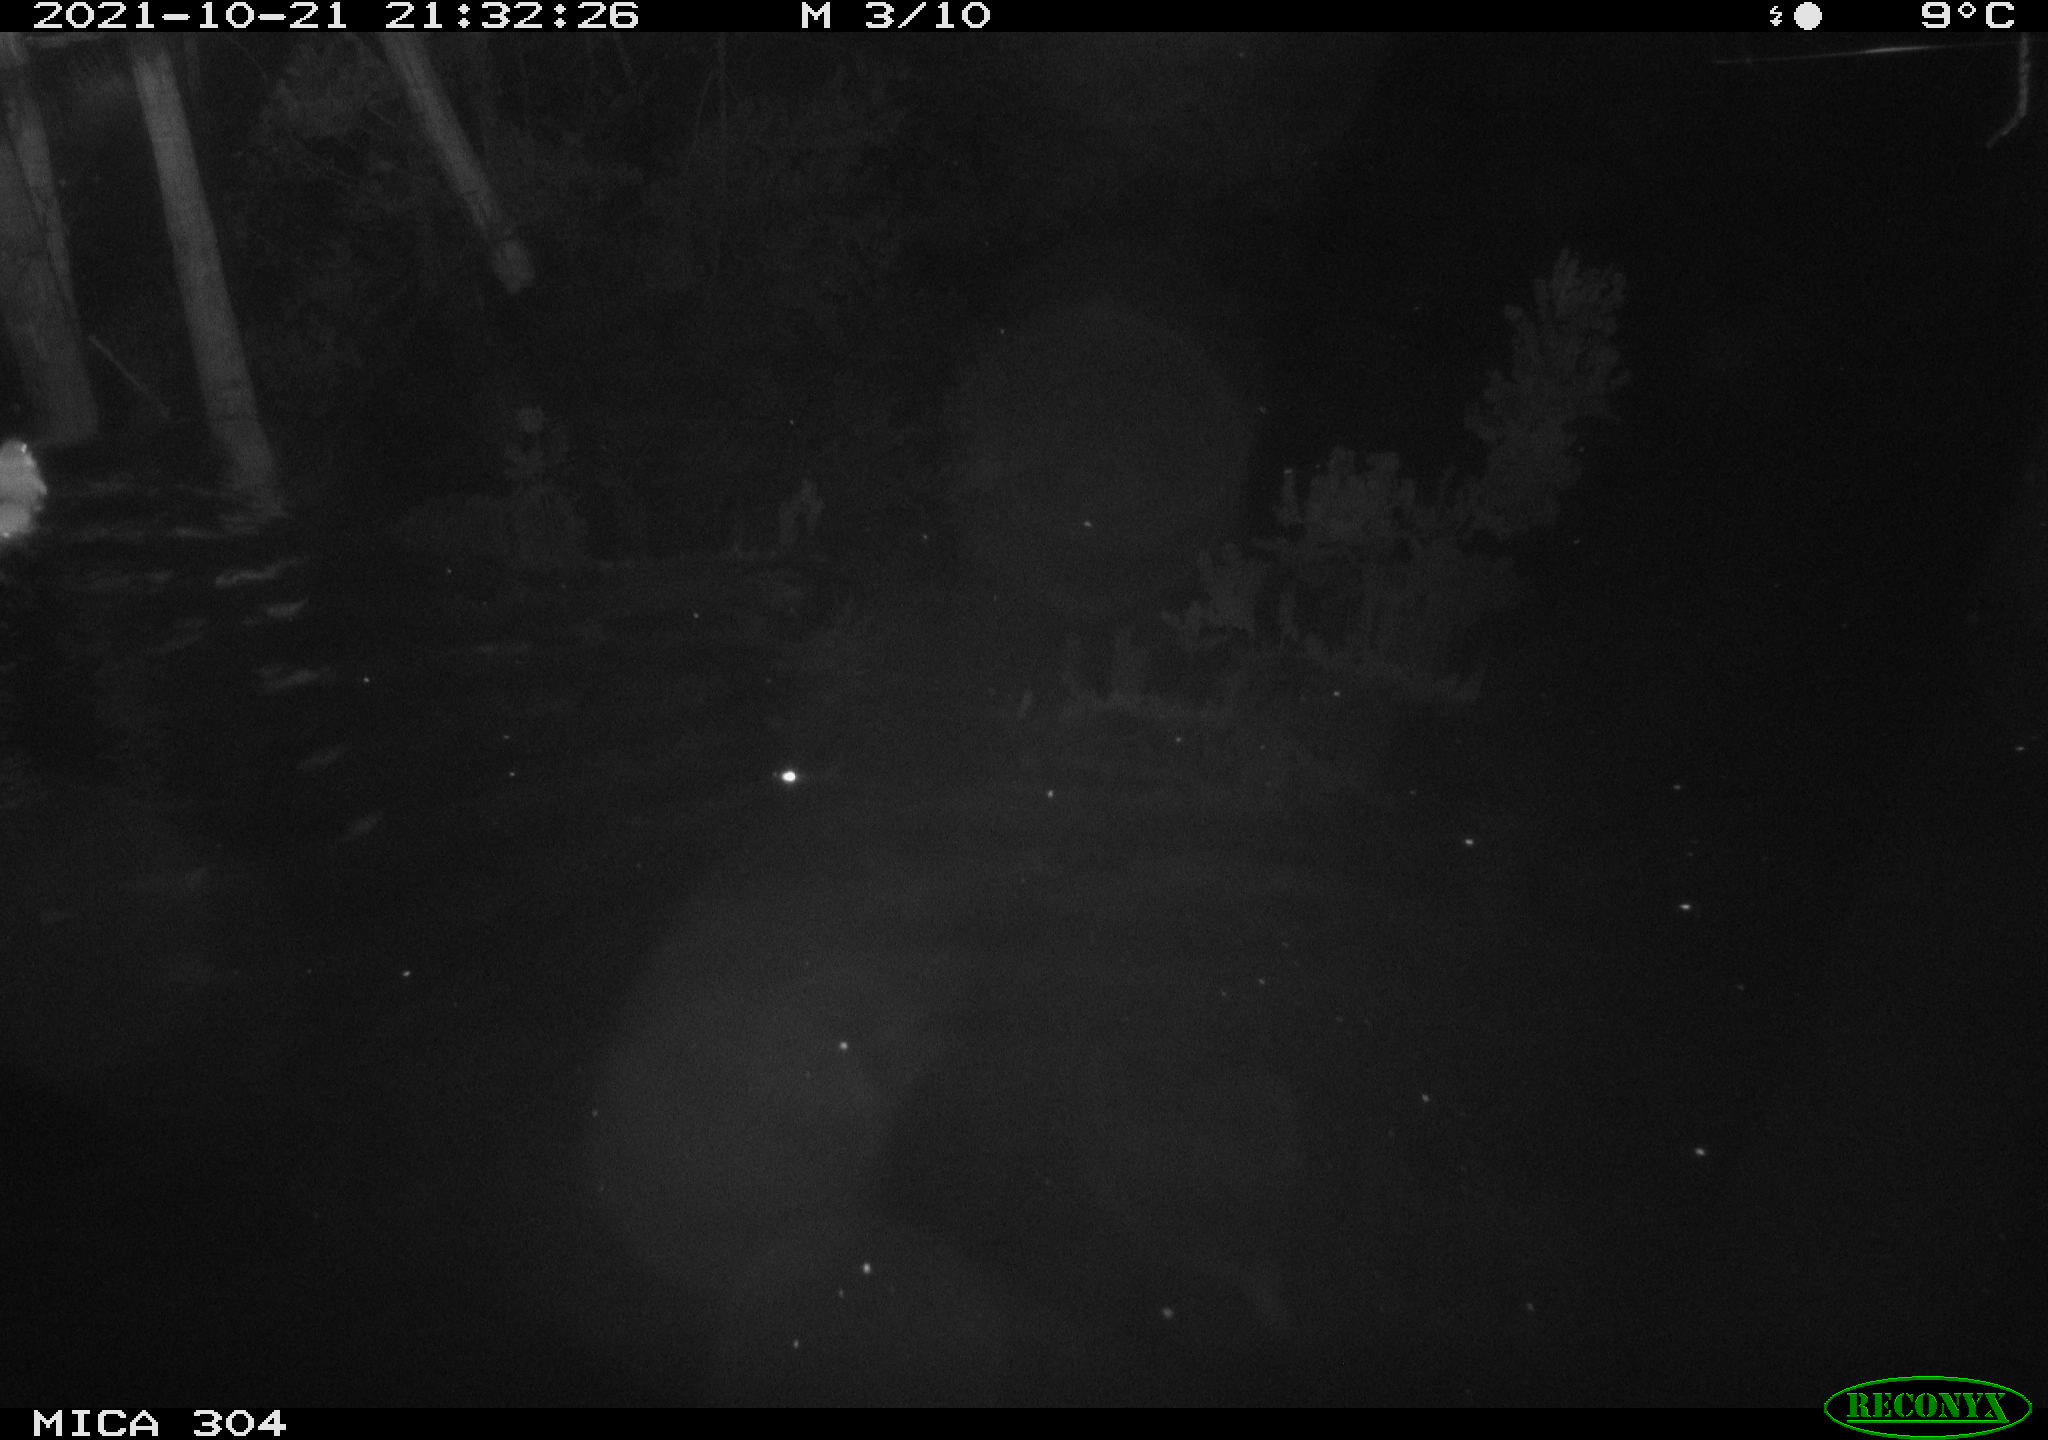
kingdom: Animalia
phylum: Chordata
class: Mammalia
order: Rodentia
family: Muridae
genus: Rattus
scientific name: Rattus norvegicus
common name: Brown rat
